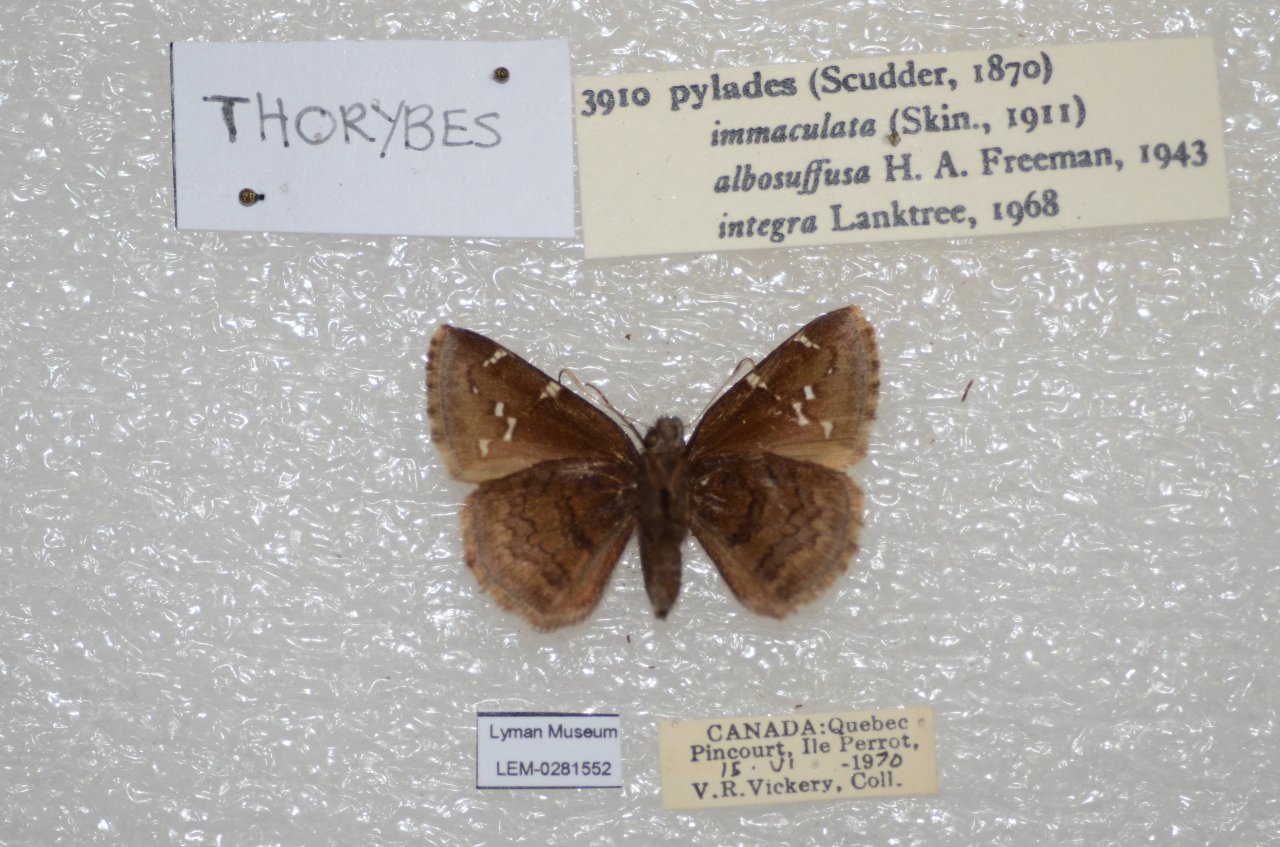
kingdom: Animalia
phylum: Arthropoda
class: Insecta
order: Lepidoptera
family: Hesperiidae
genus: Autochton
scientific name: Autochton
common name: Northern Cloudywing
